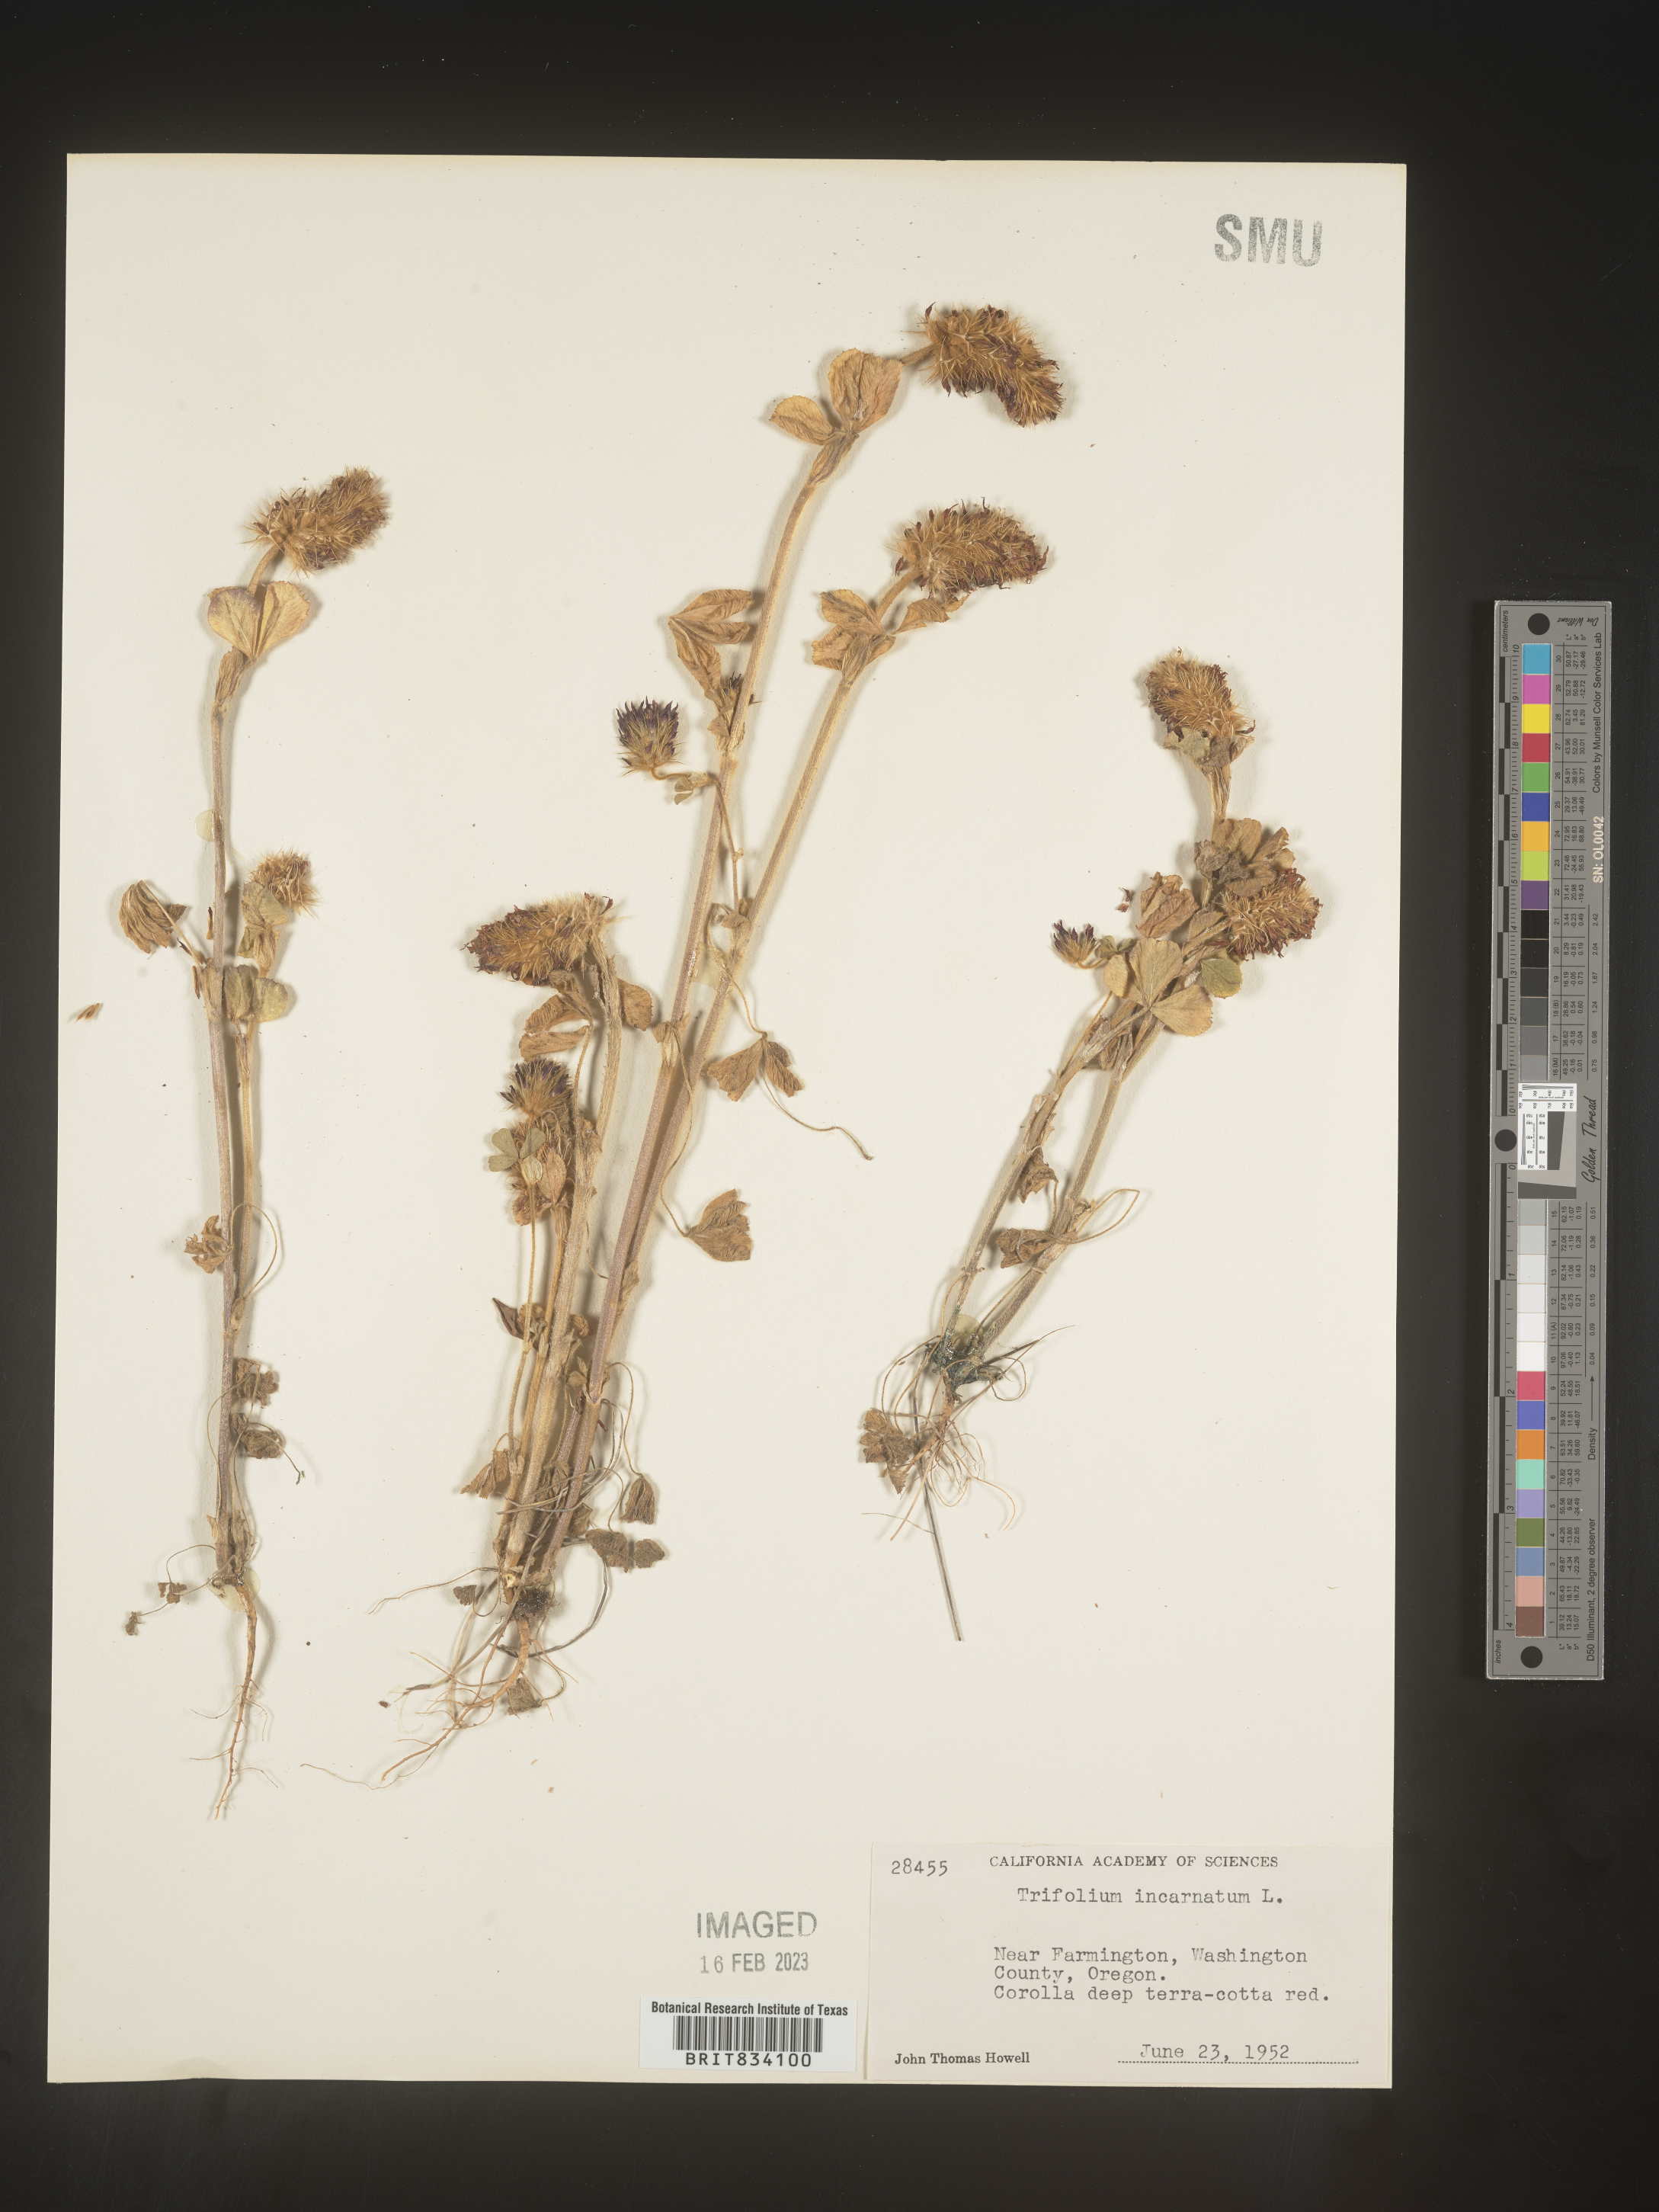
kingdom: Plantae
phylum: Tracheophyta
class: Magnoliopsida
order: Fabales
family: Fabaceae
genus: Trifolium
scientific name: Trifolium incarnatum
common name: Crimson clover
